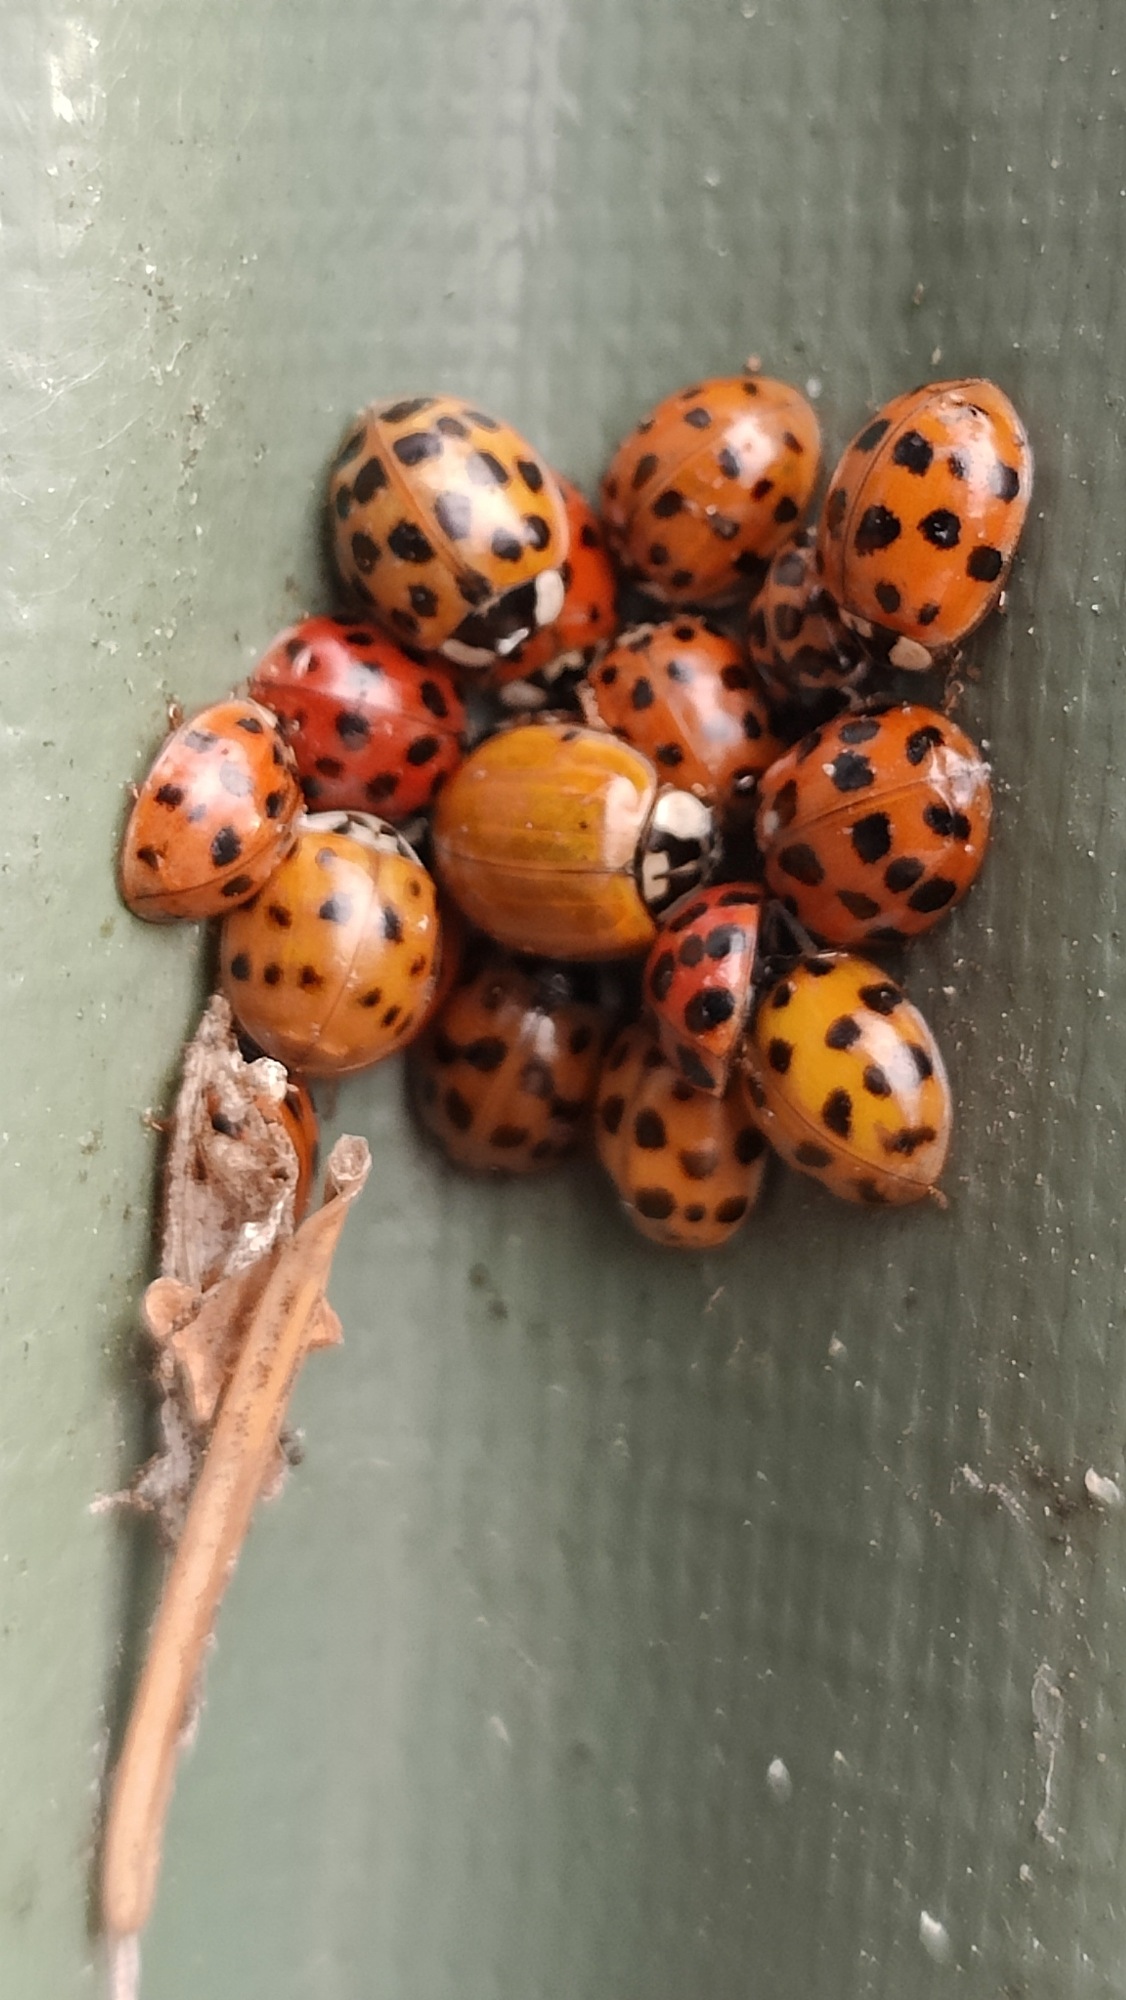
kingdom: Animalia
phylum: Arthropoda
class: Insecta
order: Coleoptera
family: Coccinellidae
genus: Harmonia
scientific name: Harmonia axyridis
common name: Harlekinmariehøne
